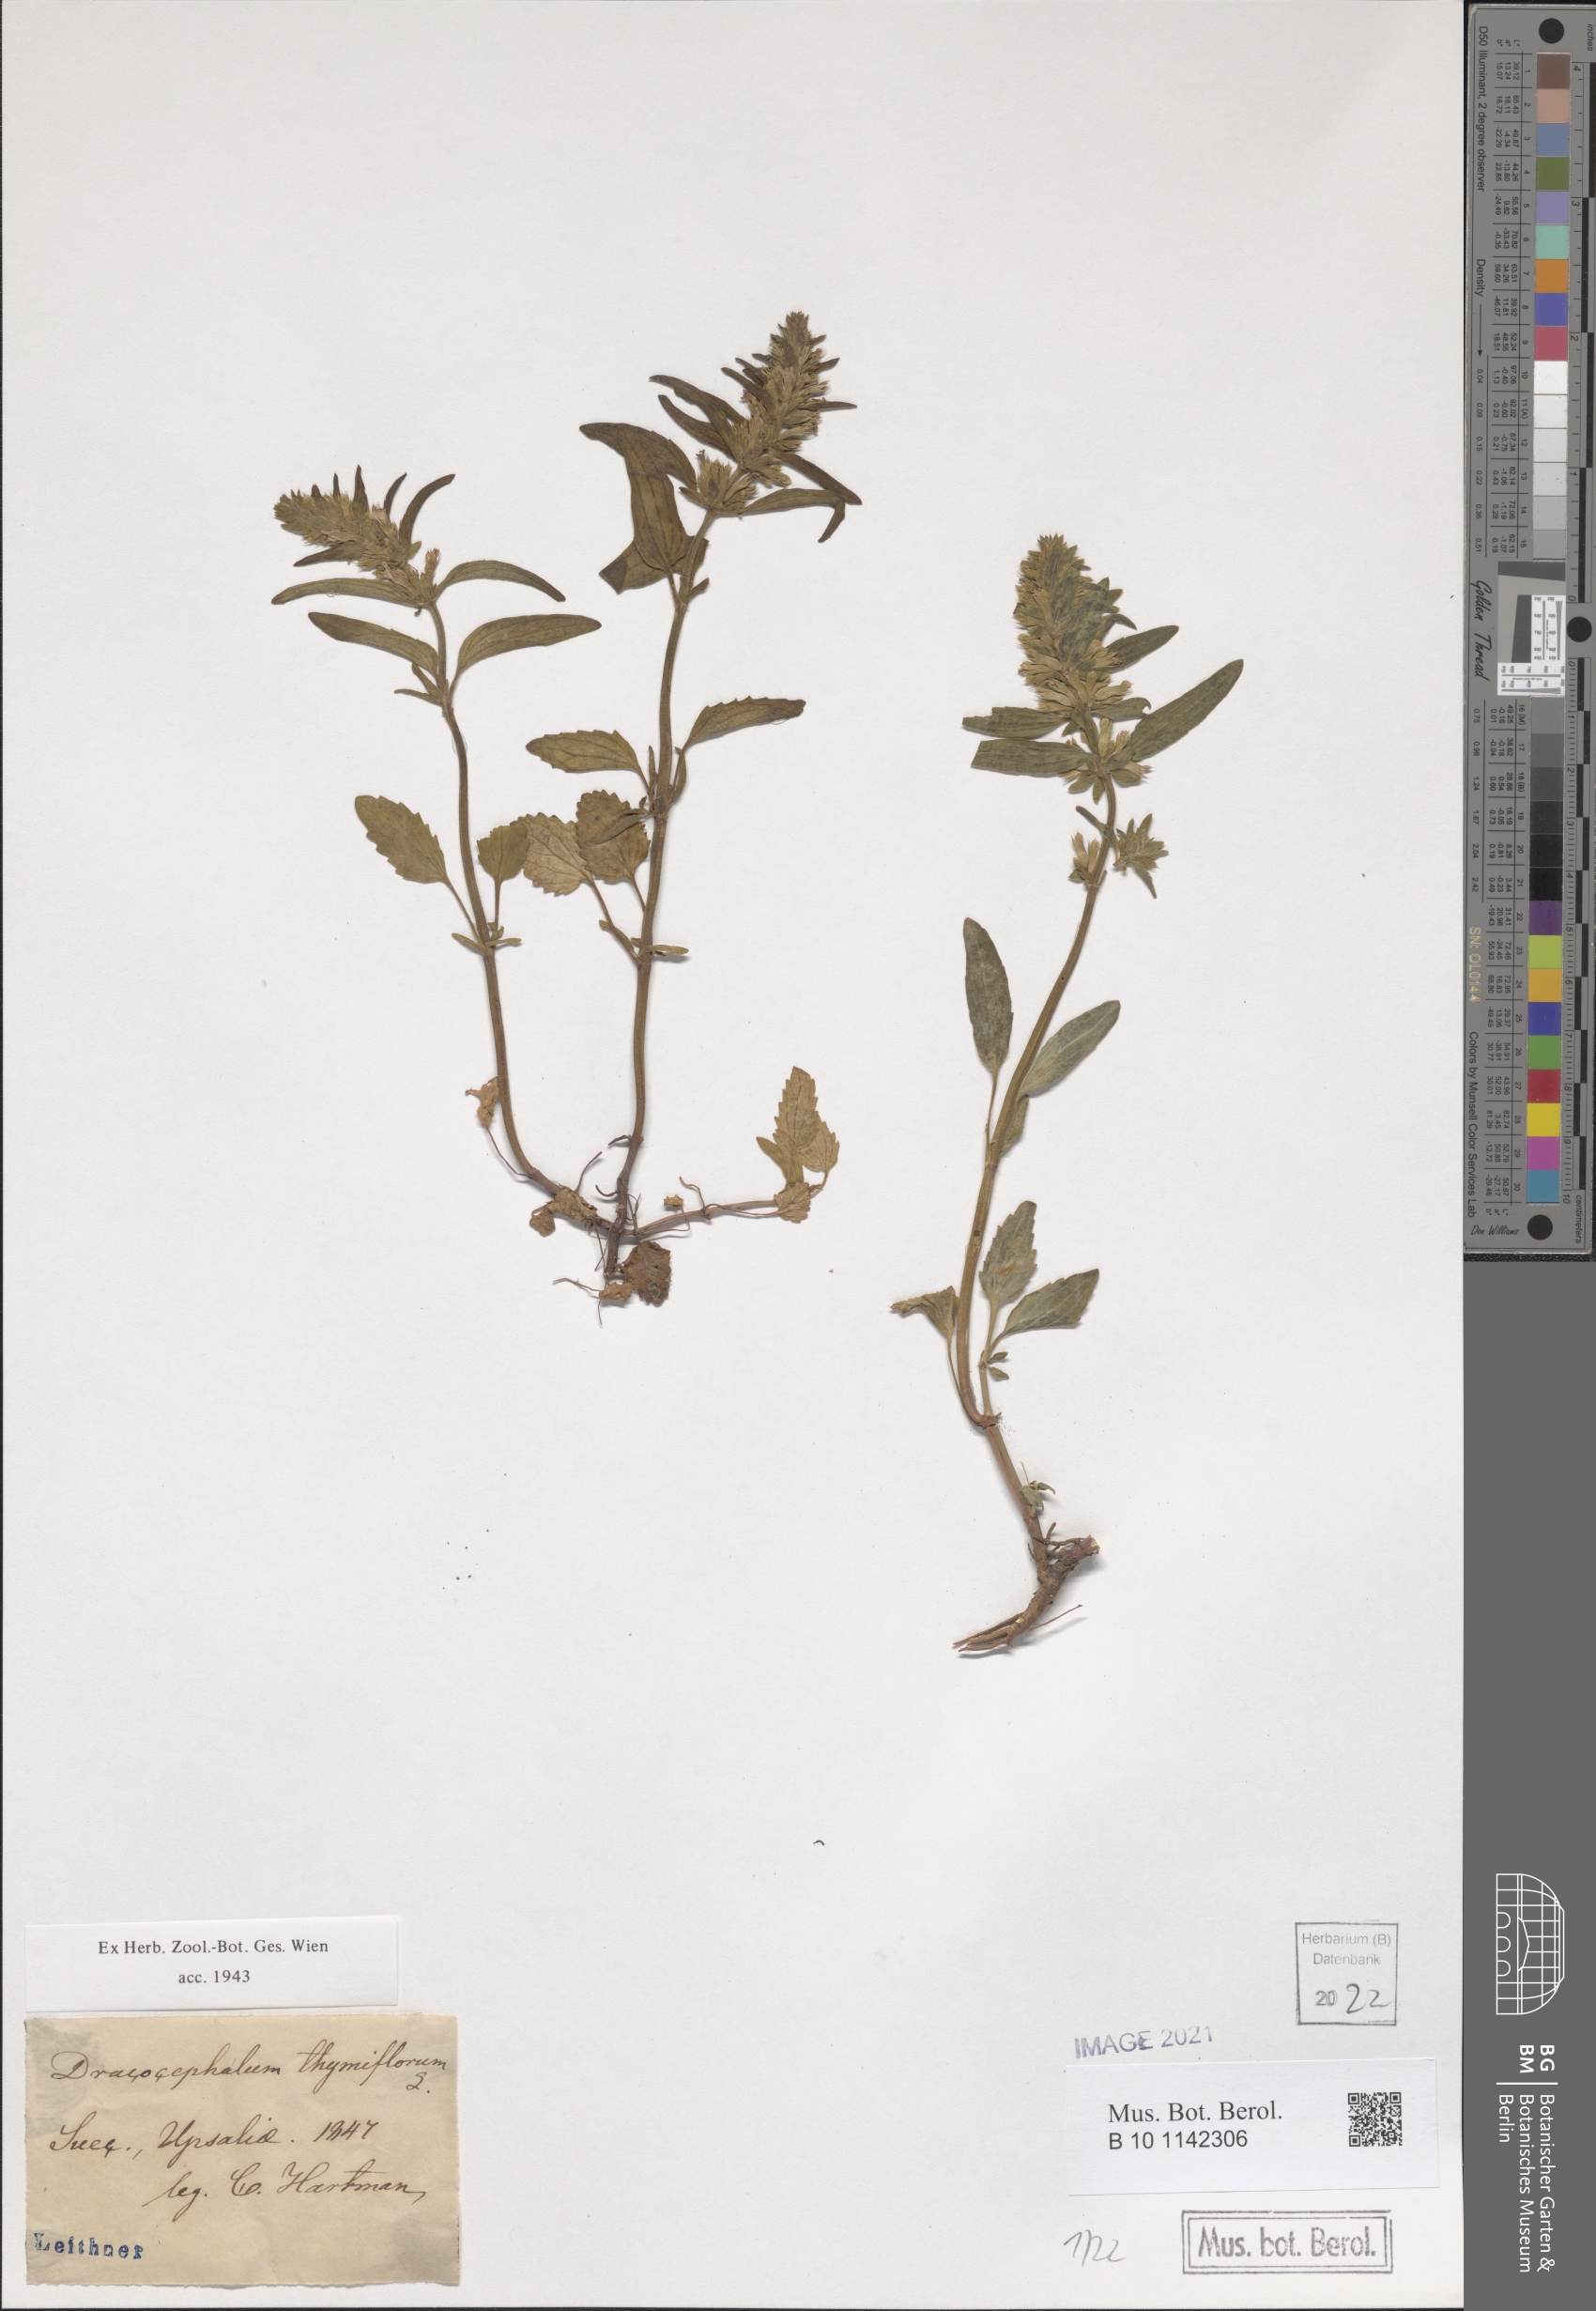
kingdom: Plantae
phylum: Tracheophyta
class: Magnoliopsida
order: Lamiales
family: Lamiaceae
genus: Dracocephalum
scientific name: Dracocephalum thymiflorum
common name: Thymeleaf dragonhead
